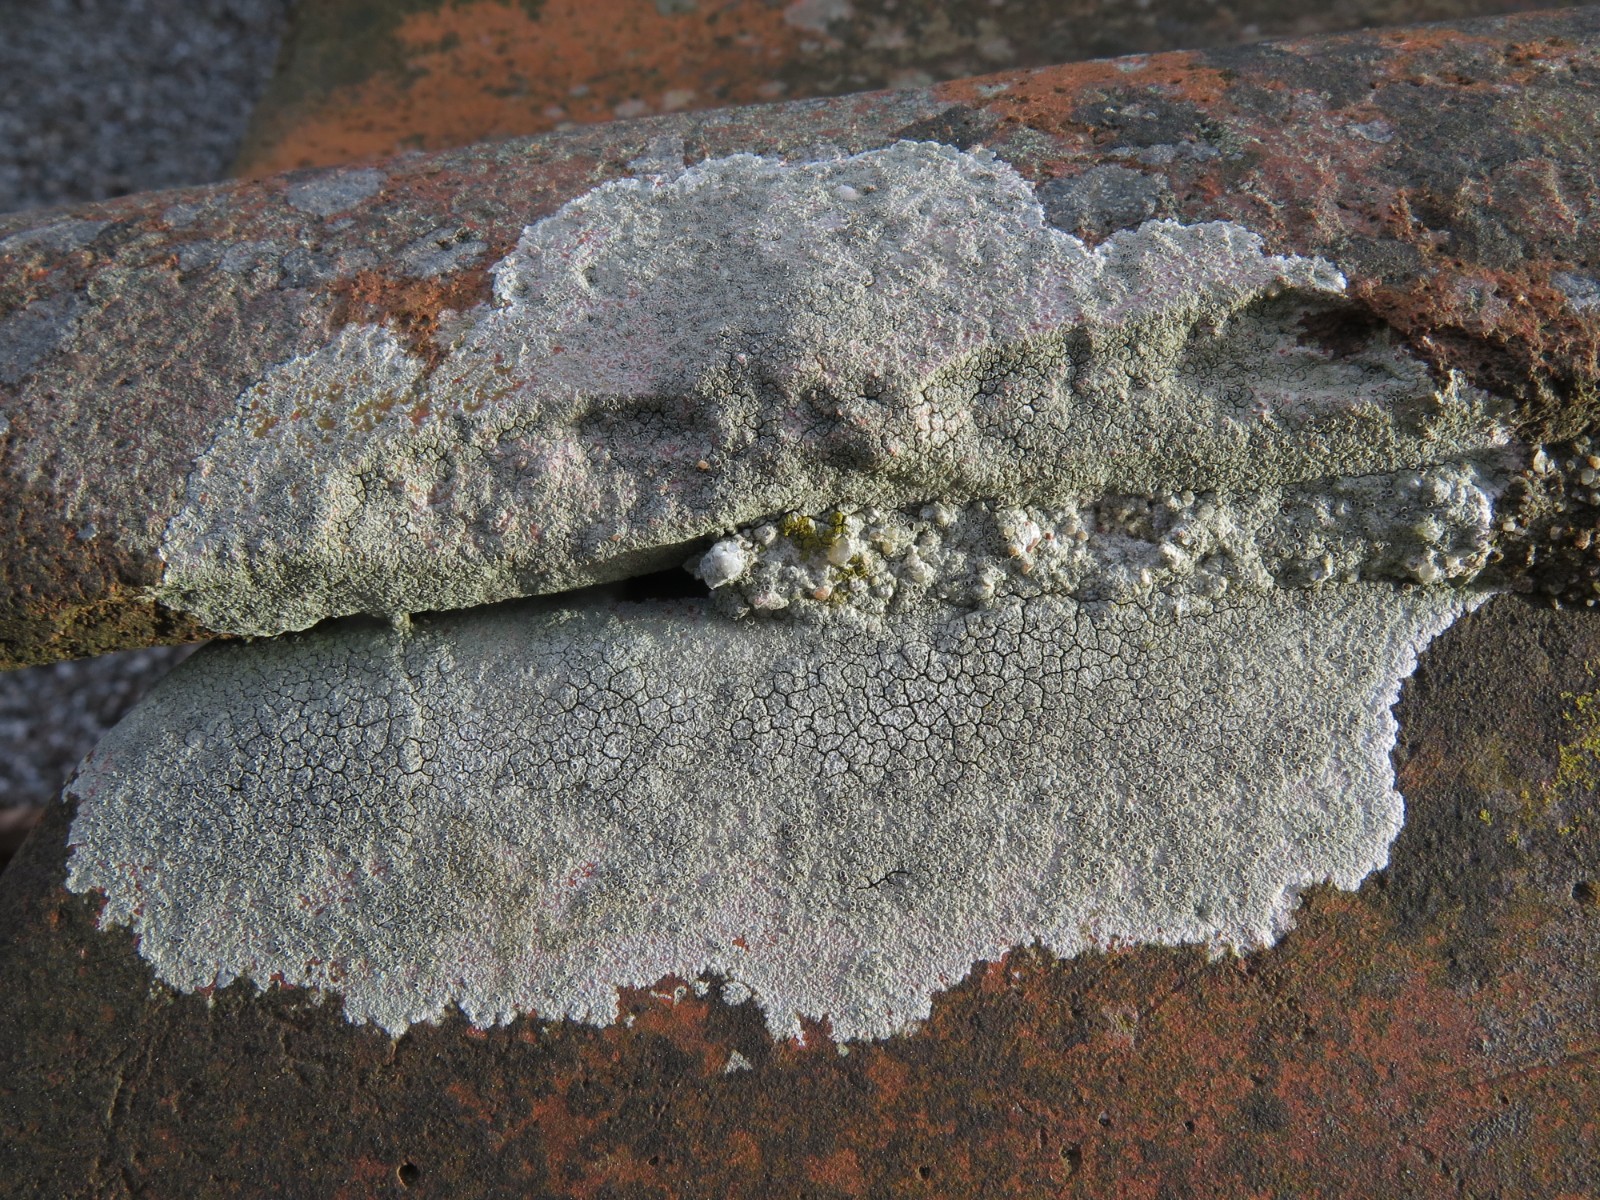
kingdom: Fungi
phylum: Ascomycota
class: Lecanoromycetes
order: Lecanorales
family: Lecanoraceae
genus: Lecanora
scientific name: Lecanora campestris
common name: mur-kantskivelav
